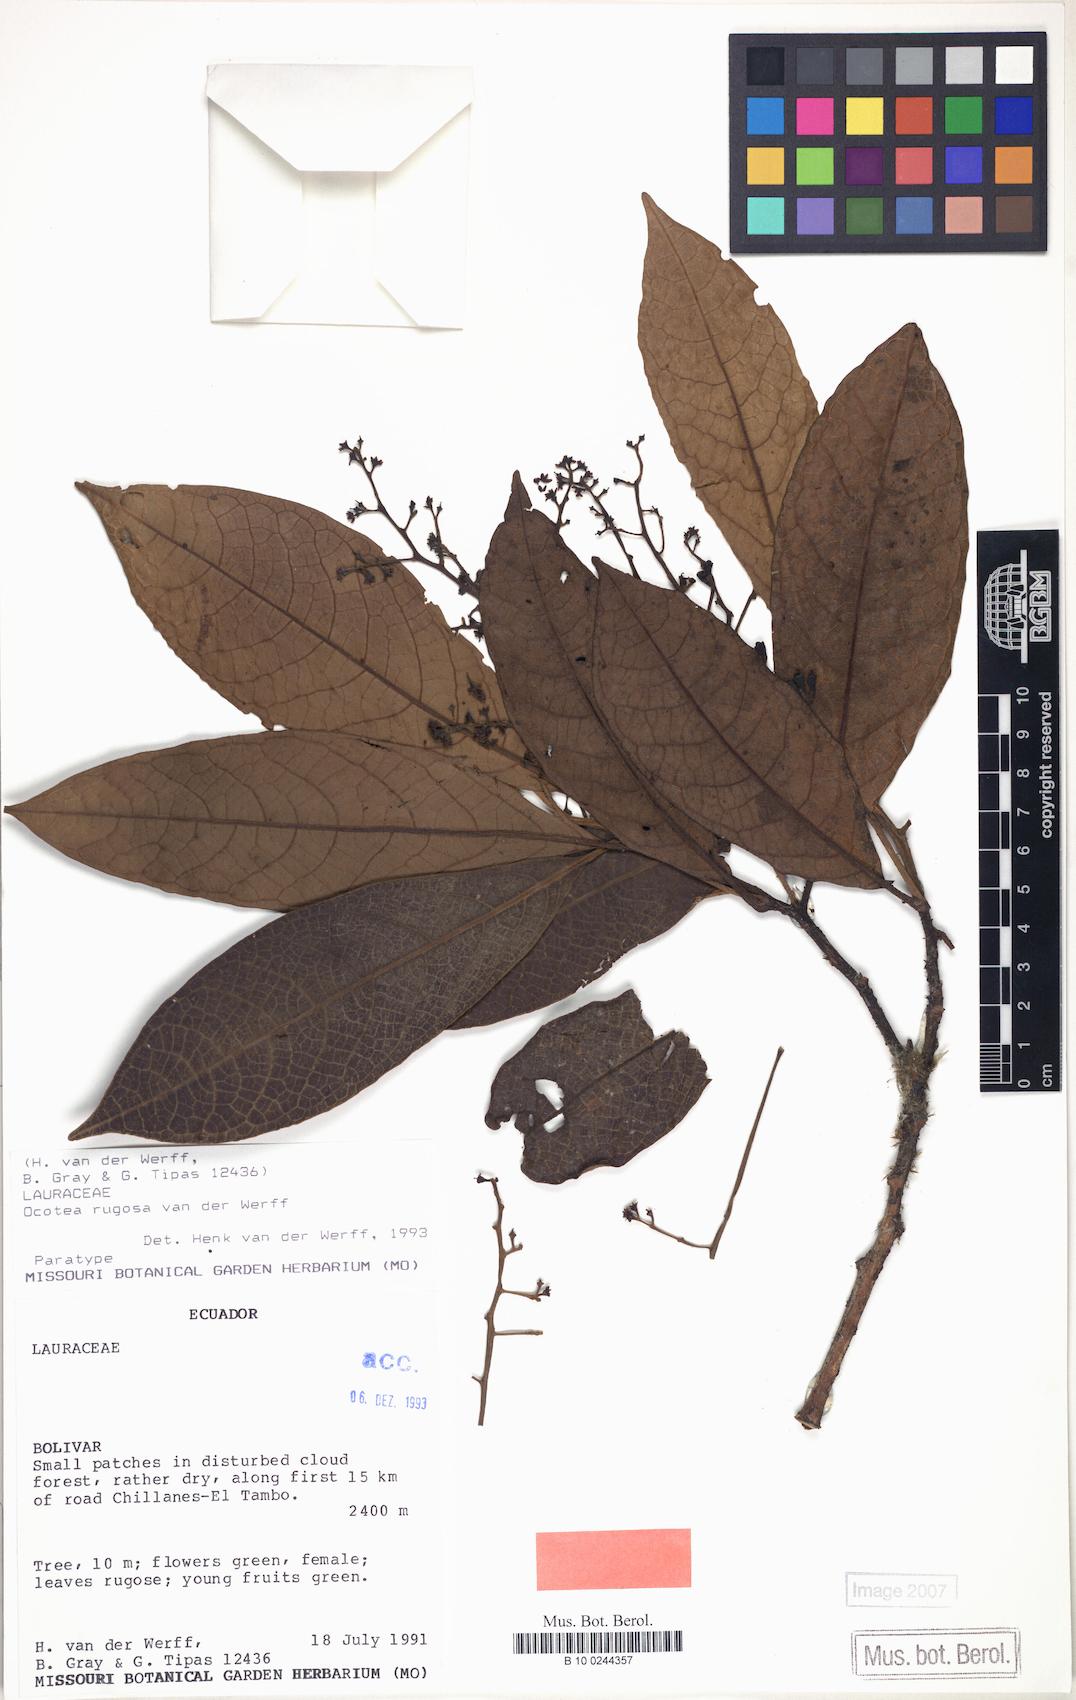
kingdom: Plantae
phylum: Tracheophyta
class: Magnoliopsida
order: Laurales
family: Lauraceae
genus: Ocotea
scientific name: Ocotea rugosa
